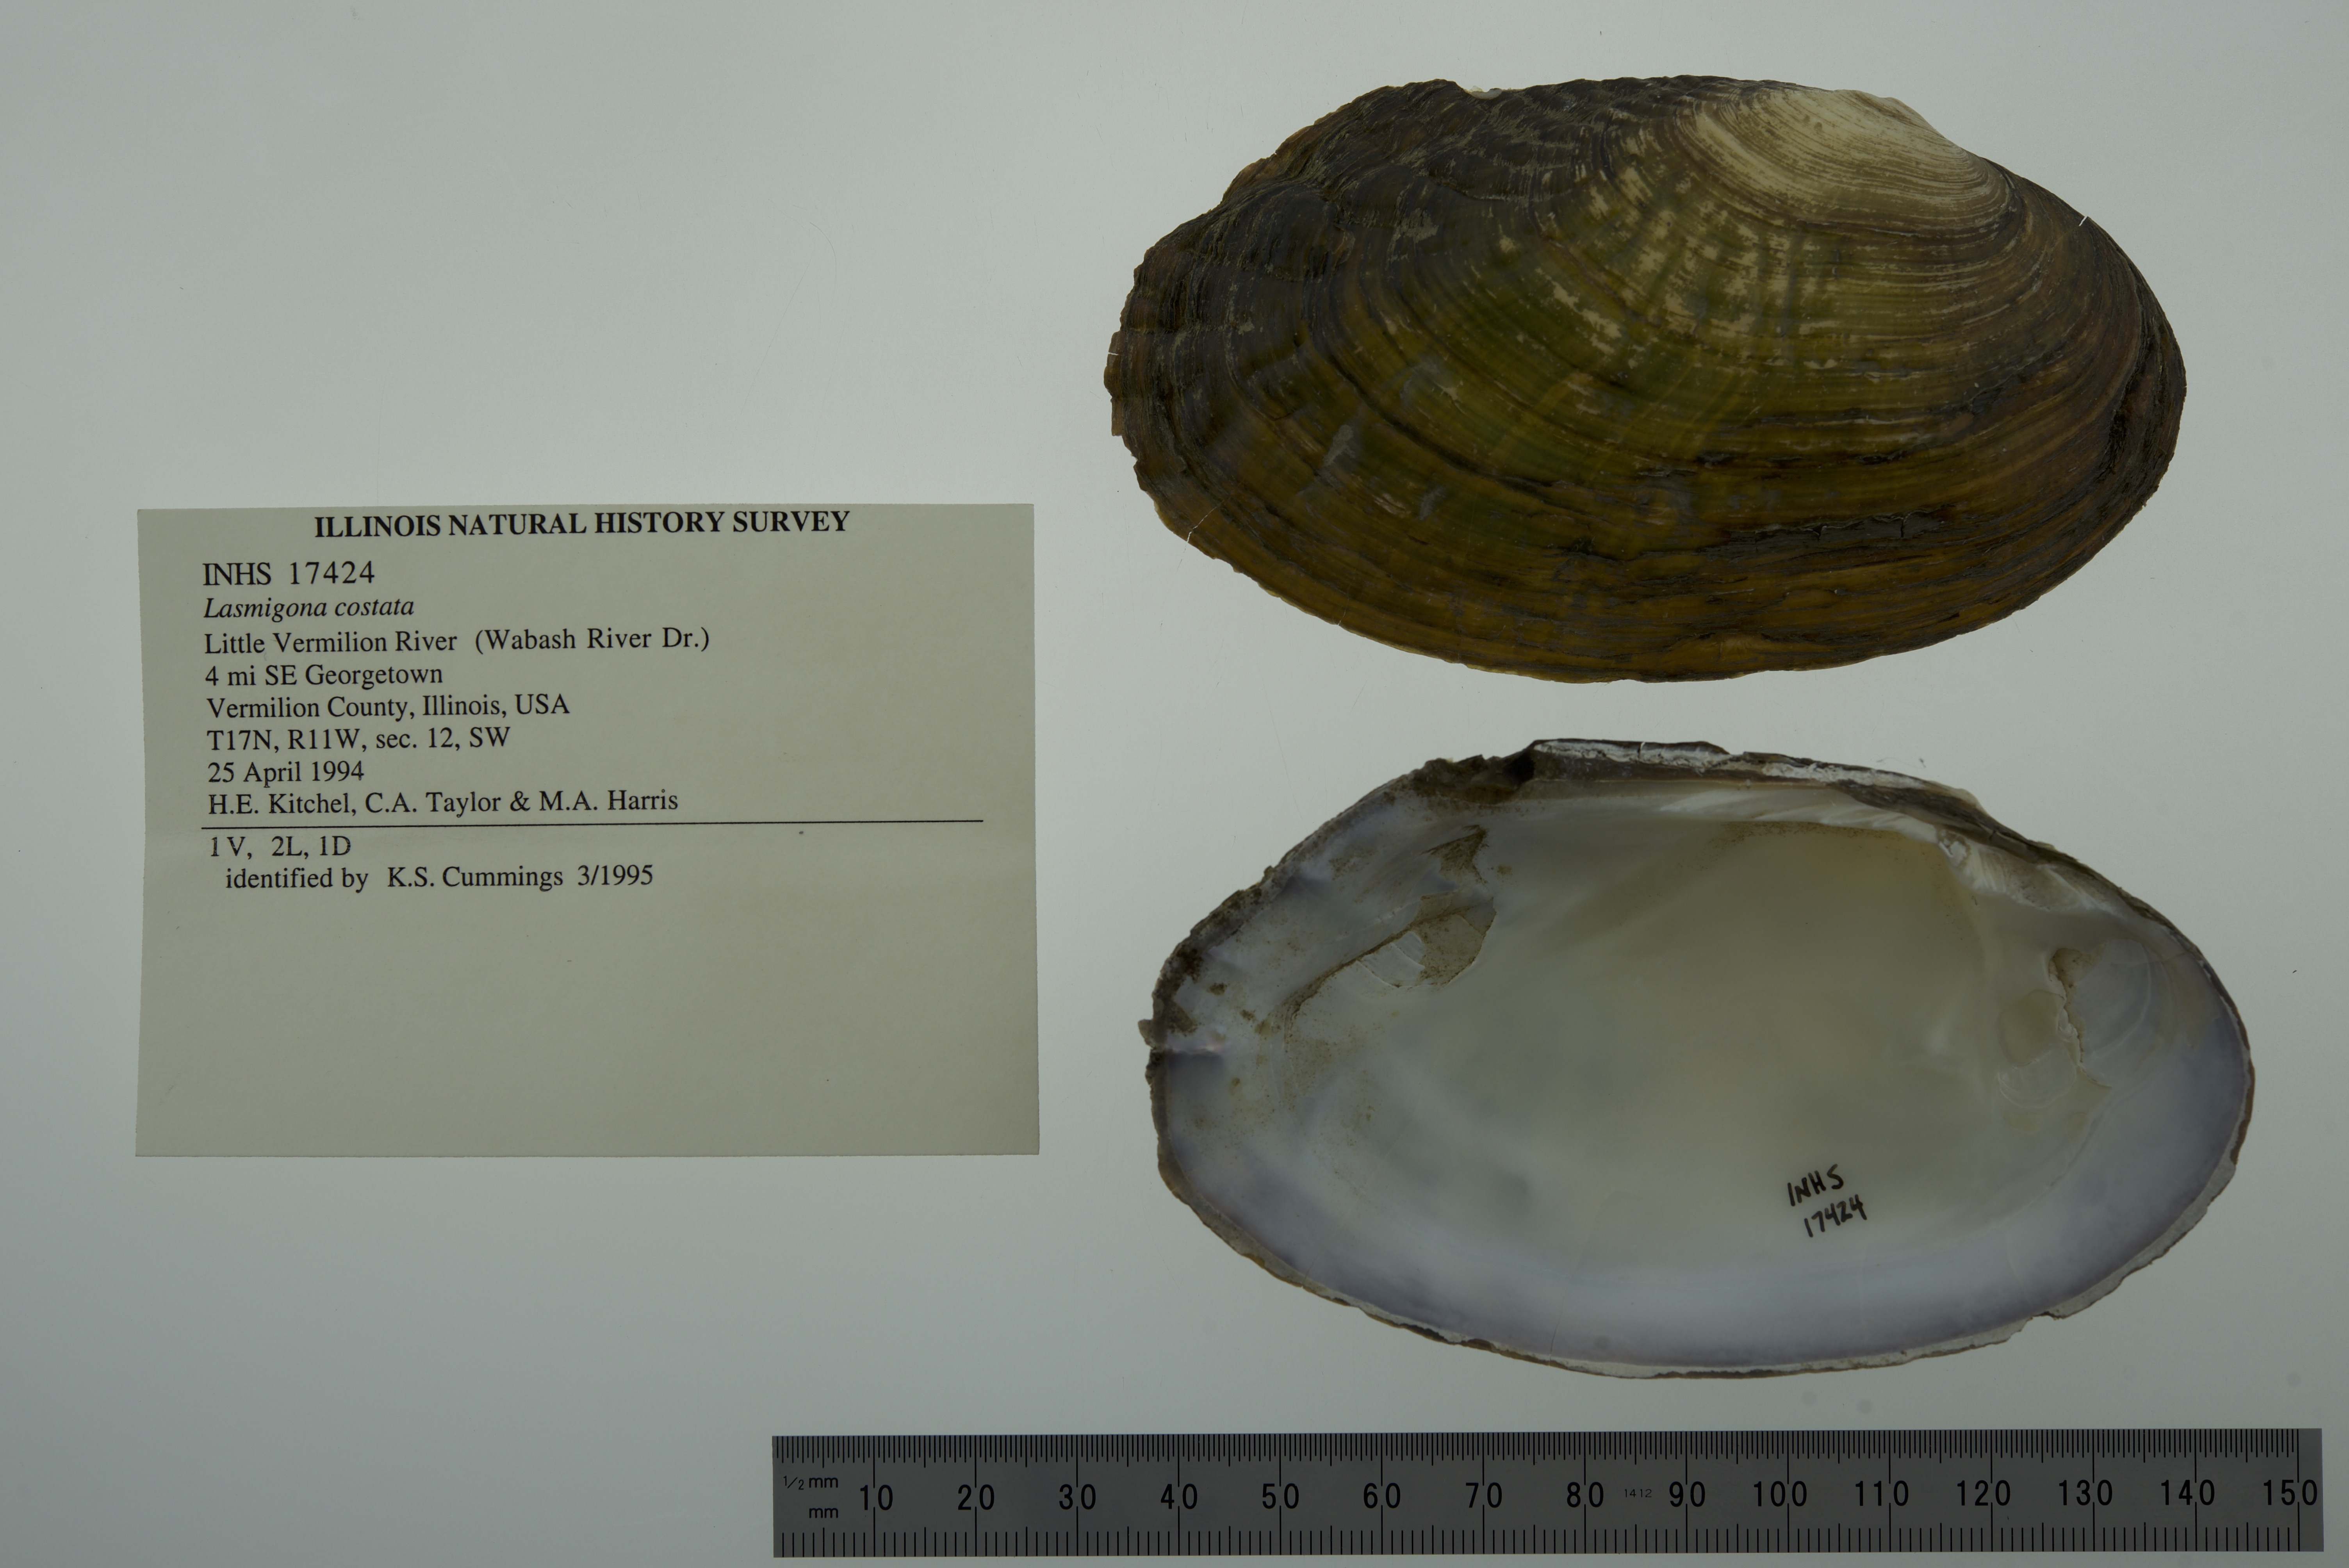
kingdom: Animalia
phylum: Mollusca
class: Bivalvia
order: Unionida
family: Unionidae
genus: Lasmigona
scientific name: Lasmigona costata
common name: Flutedshell
